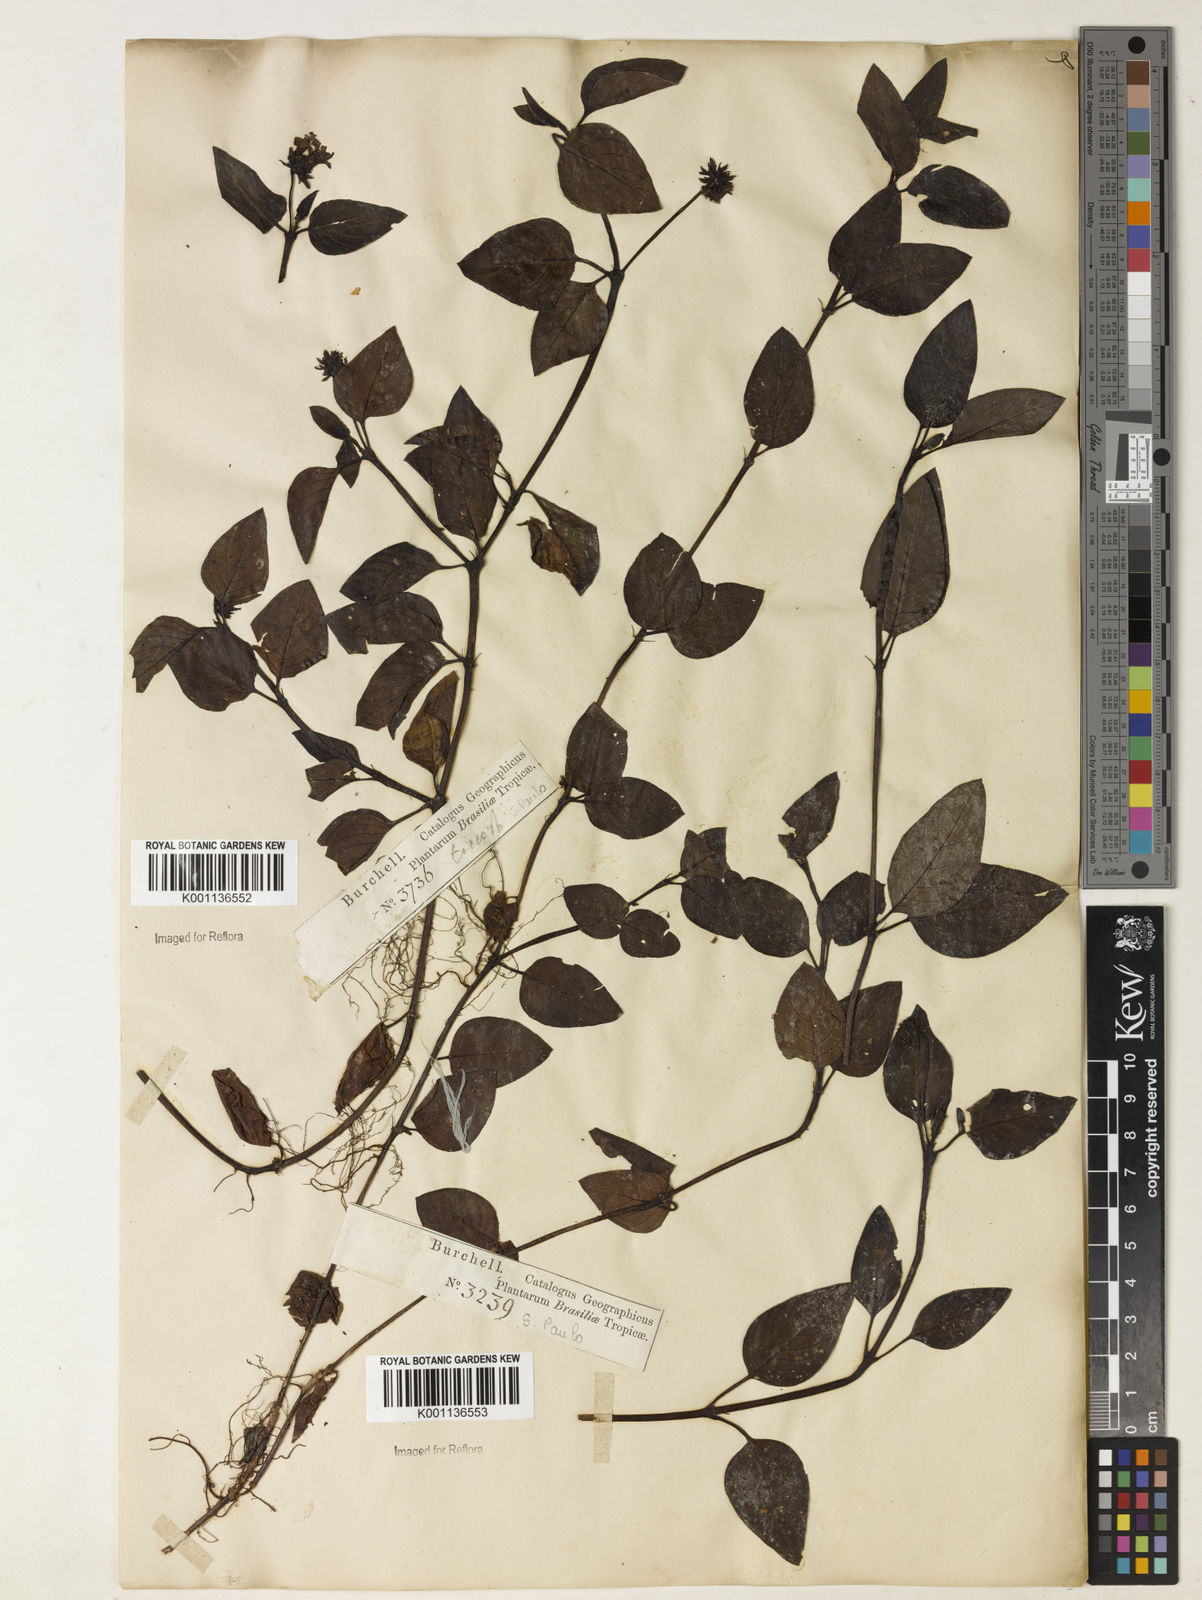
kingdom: Plantae
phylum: Tracheophyta
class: Magnoliopsida
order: Gentianales
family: Rubiaceae
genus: Coccocypselum
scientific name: Coccocypselum condalia
